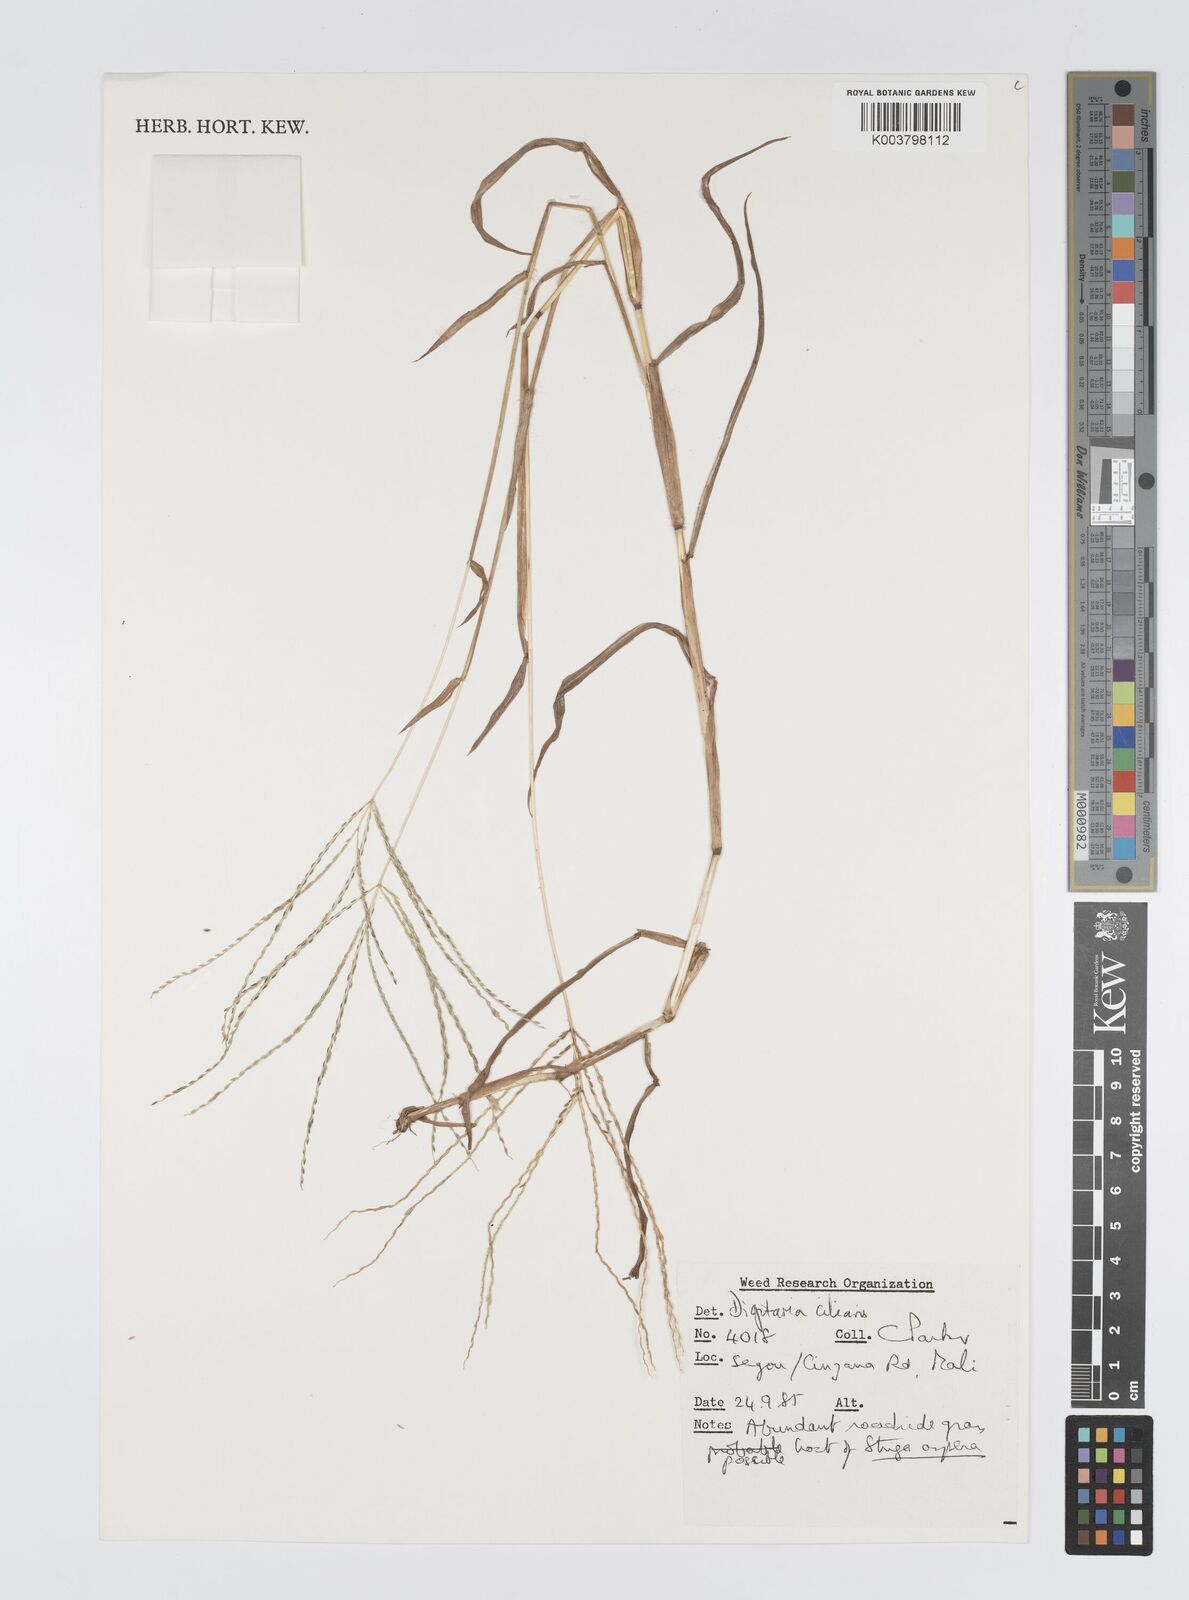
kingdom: Plantae
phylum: Tracheophyta
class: Liliopsida
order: Poales
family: Poaceae
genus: Digitaria
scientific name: Digitaria
